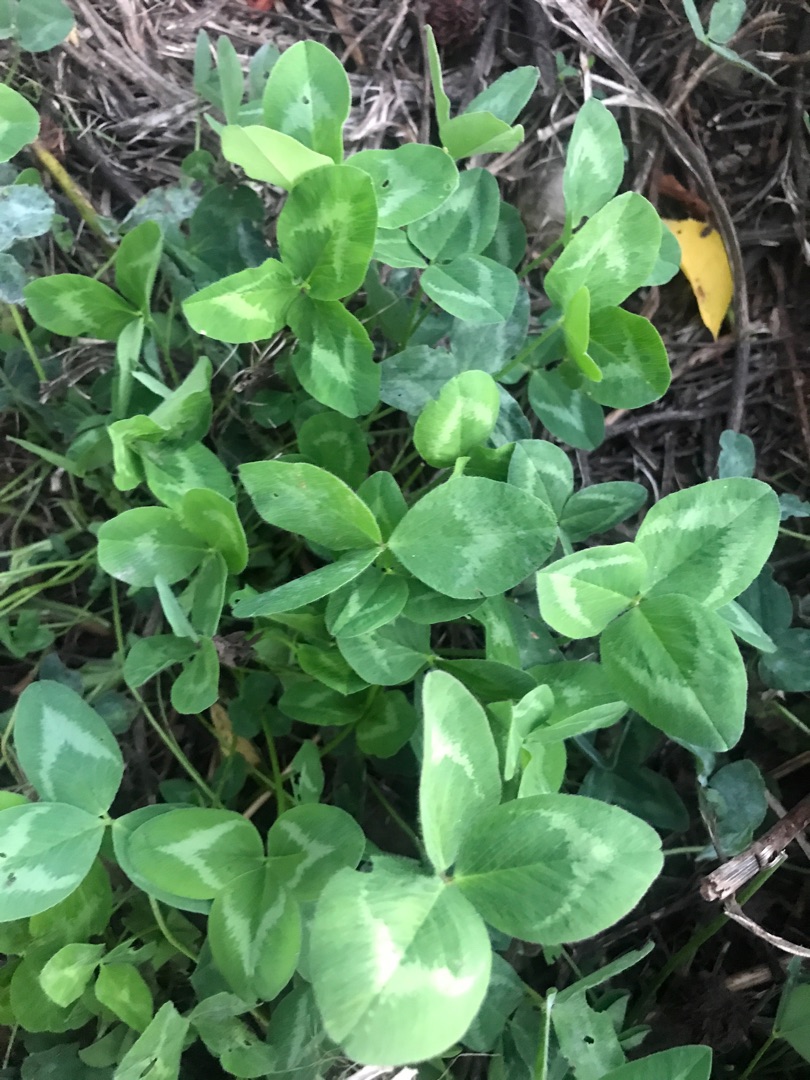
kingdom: Plantae
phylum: Tracheophyta
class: Magnoliopsida
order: Fabales
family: Fabaceae
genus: Trifolium
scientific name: Trifolium pratense
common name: Rød-kløver
